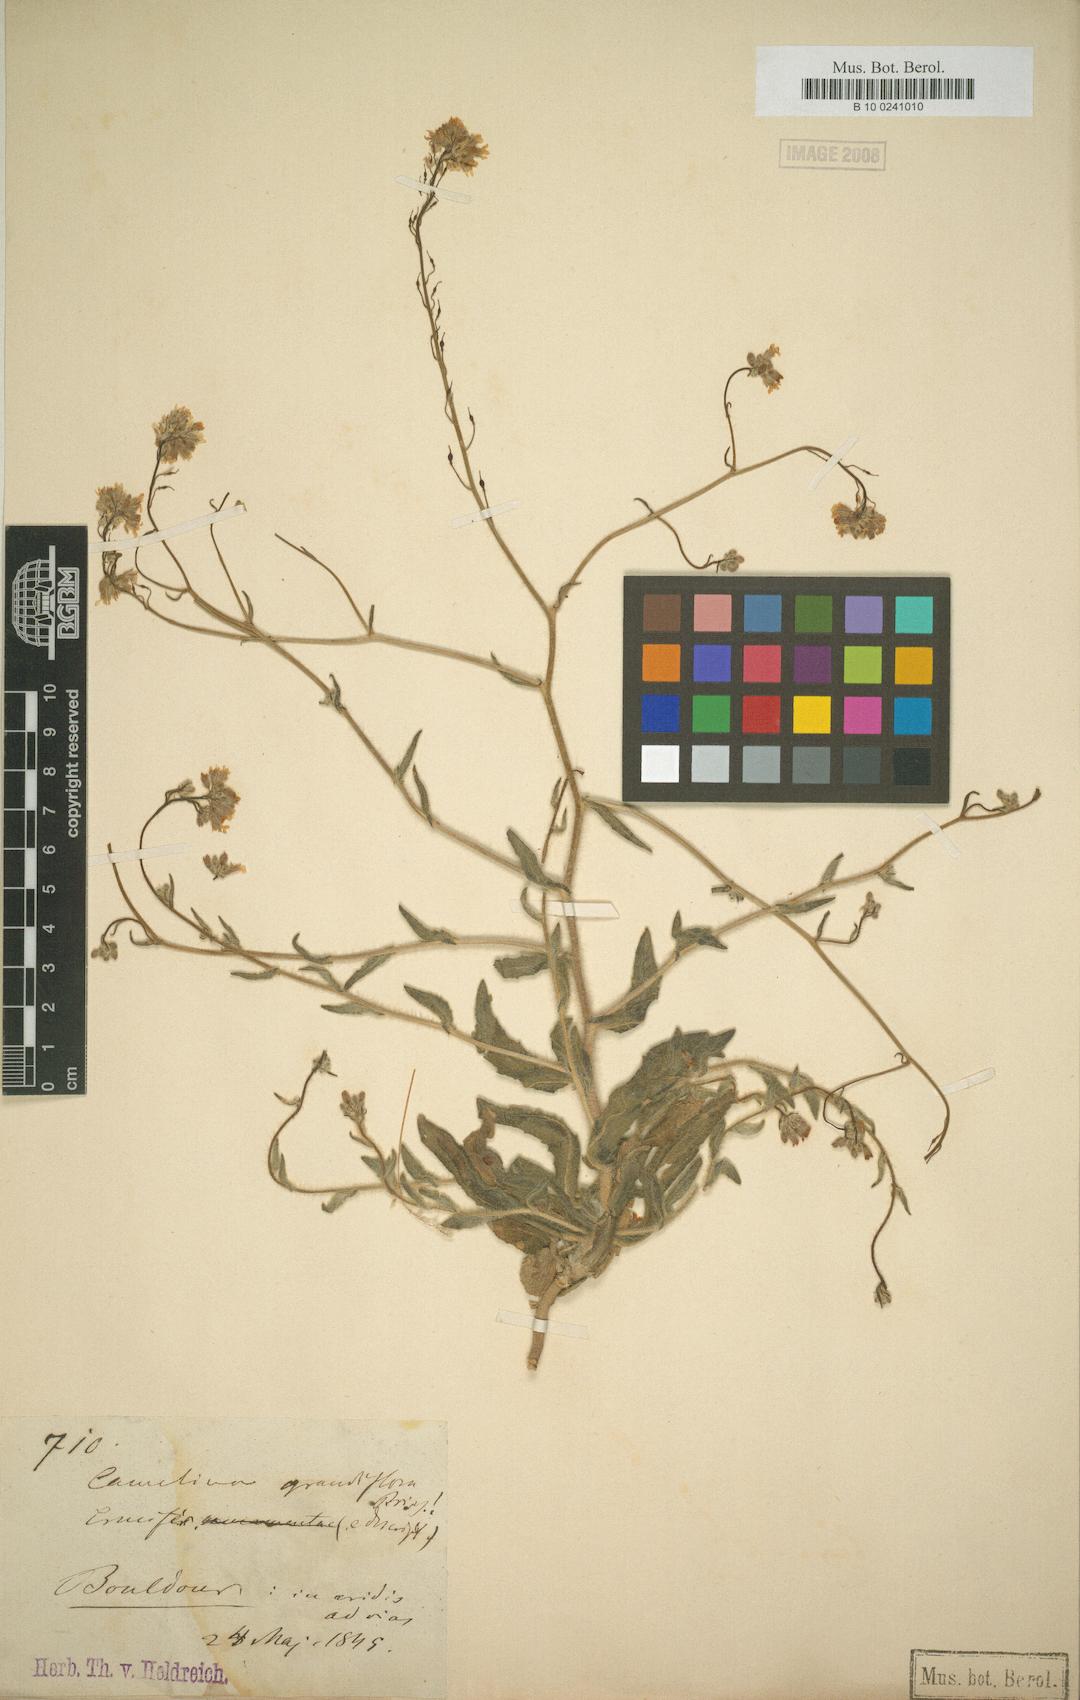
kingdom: Plantae
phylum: Tracheophyta
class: Magnoliopsida
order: Brassicales
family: Brassicaceae
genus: Camelina
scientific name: Camelina grandiflora
